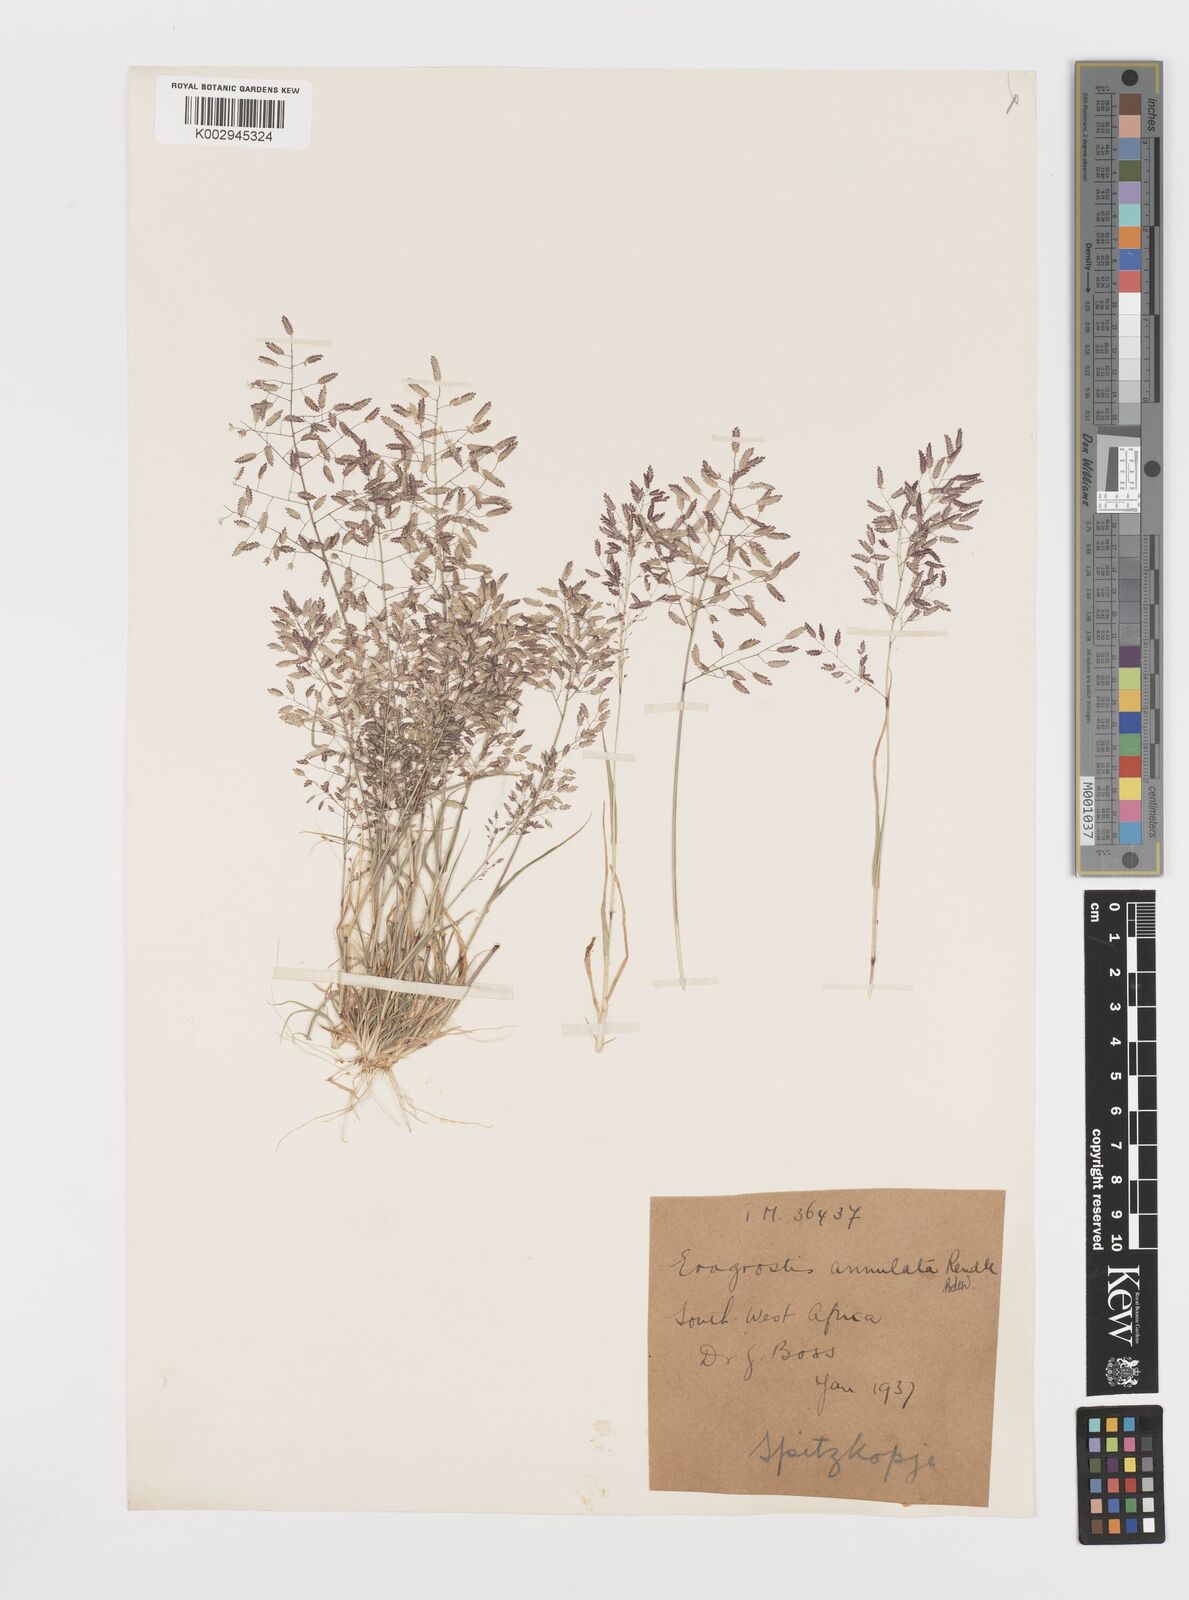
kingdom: Plantae
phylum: Tracheophyta
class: Liliopsida
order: Poales
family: Poaceae
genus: Eragrostis
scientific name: Eragrostis annulata
